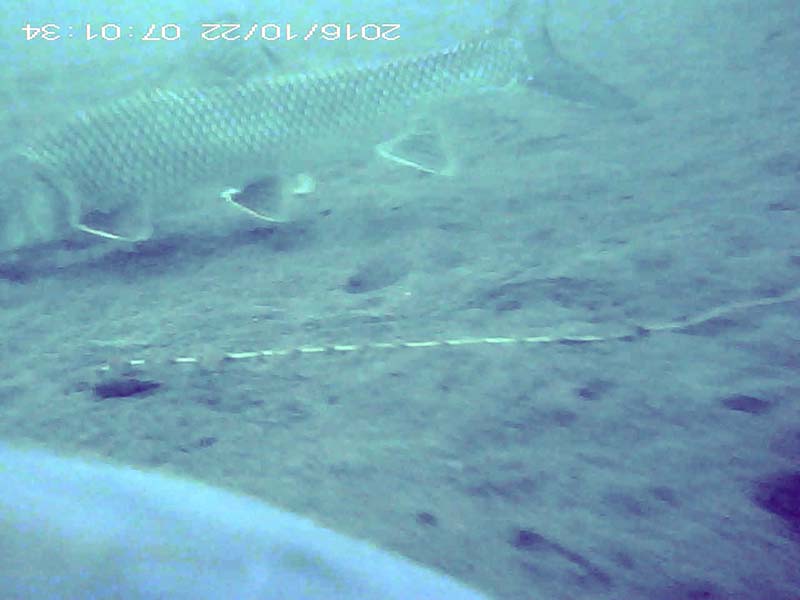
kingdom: Animalia
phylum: Chordata
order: Cypriniformes
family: Cyprinidae
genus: Hemibarbus
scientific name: Hemibarbus labeo
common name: ニゴイ
